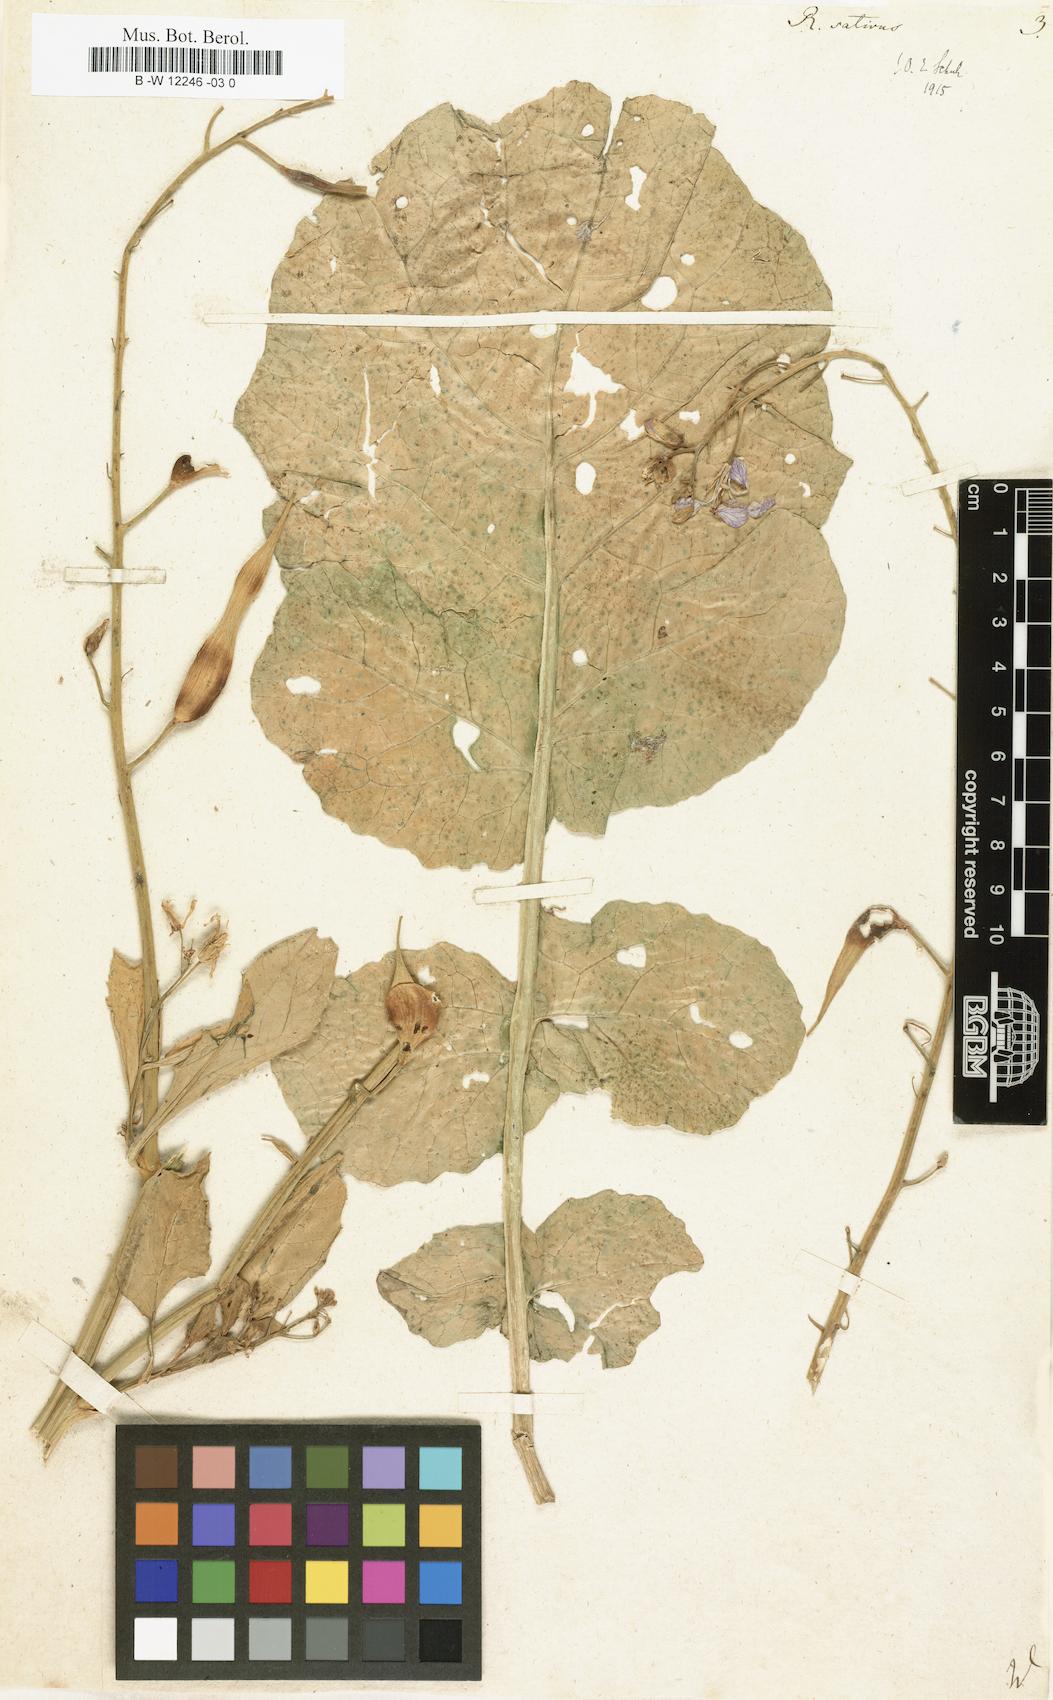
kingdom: Plantae
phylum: Tracheophyta
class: Magnoliopsida
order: Brassicales
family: Brassicaceae
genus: Raphanus
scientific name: Raphanus sativus
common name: Cultivated radish
